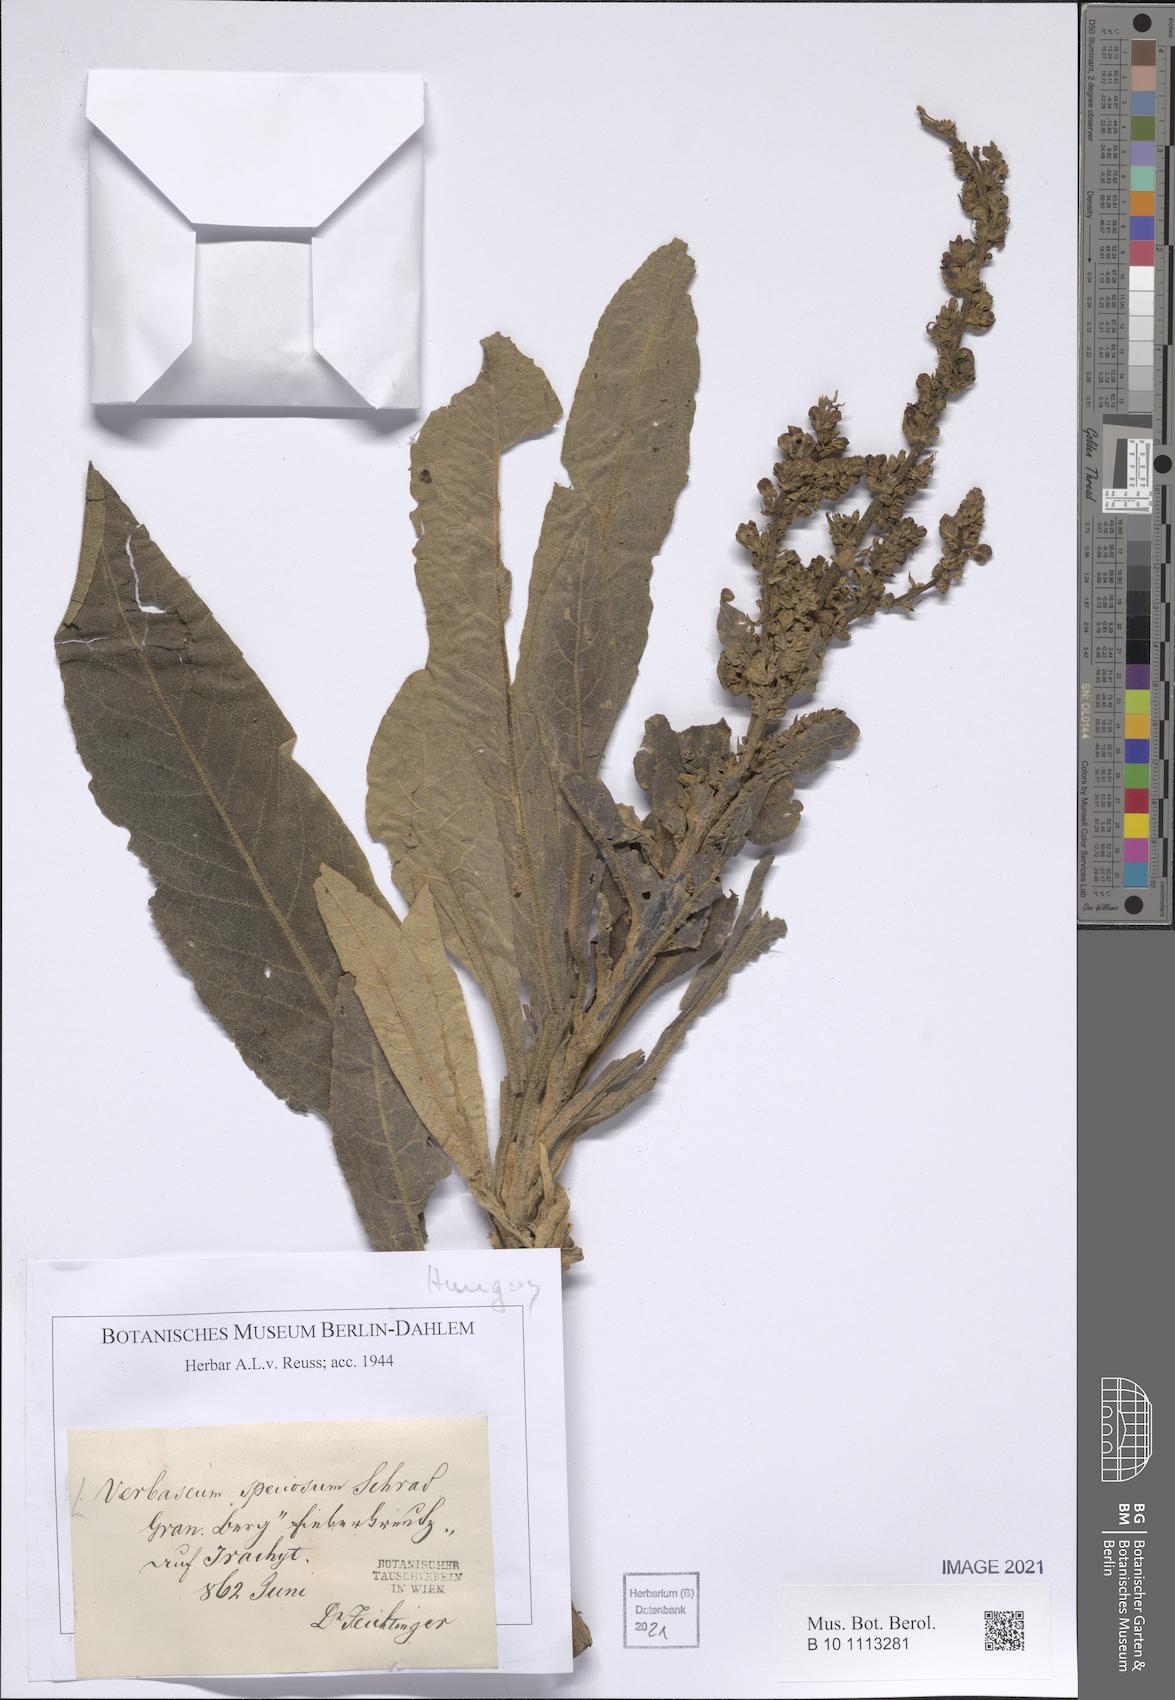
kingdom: Plantae
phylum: Tracheophyta
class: Magnoliopsida
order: Lamiales
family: Scrophulariaceae
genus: Verbascum
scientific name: Verbascum speciosum
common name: Hungarian mullein
